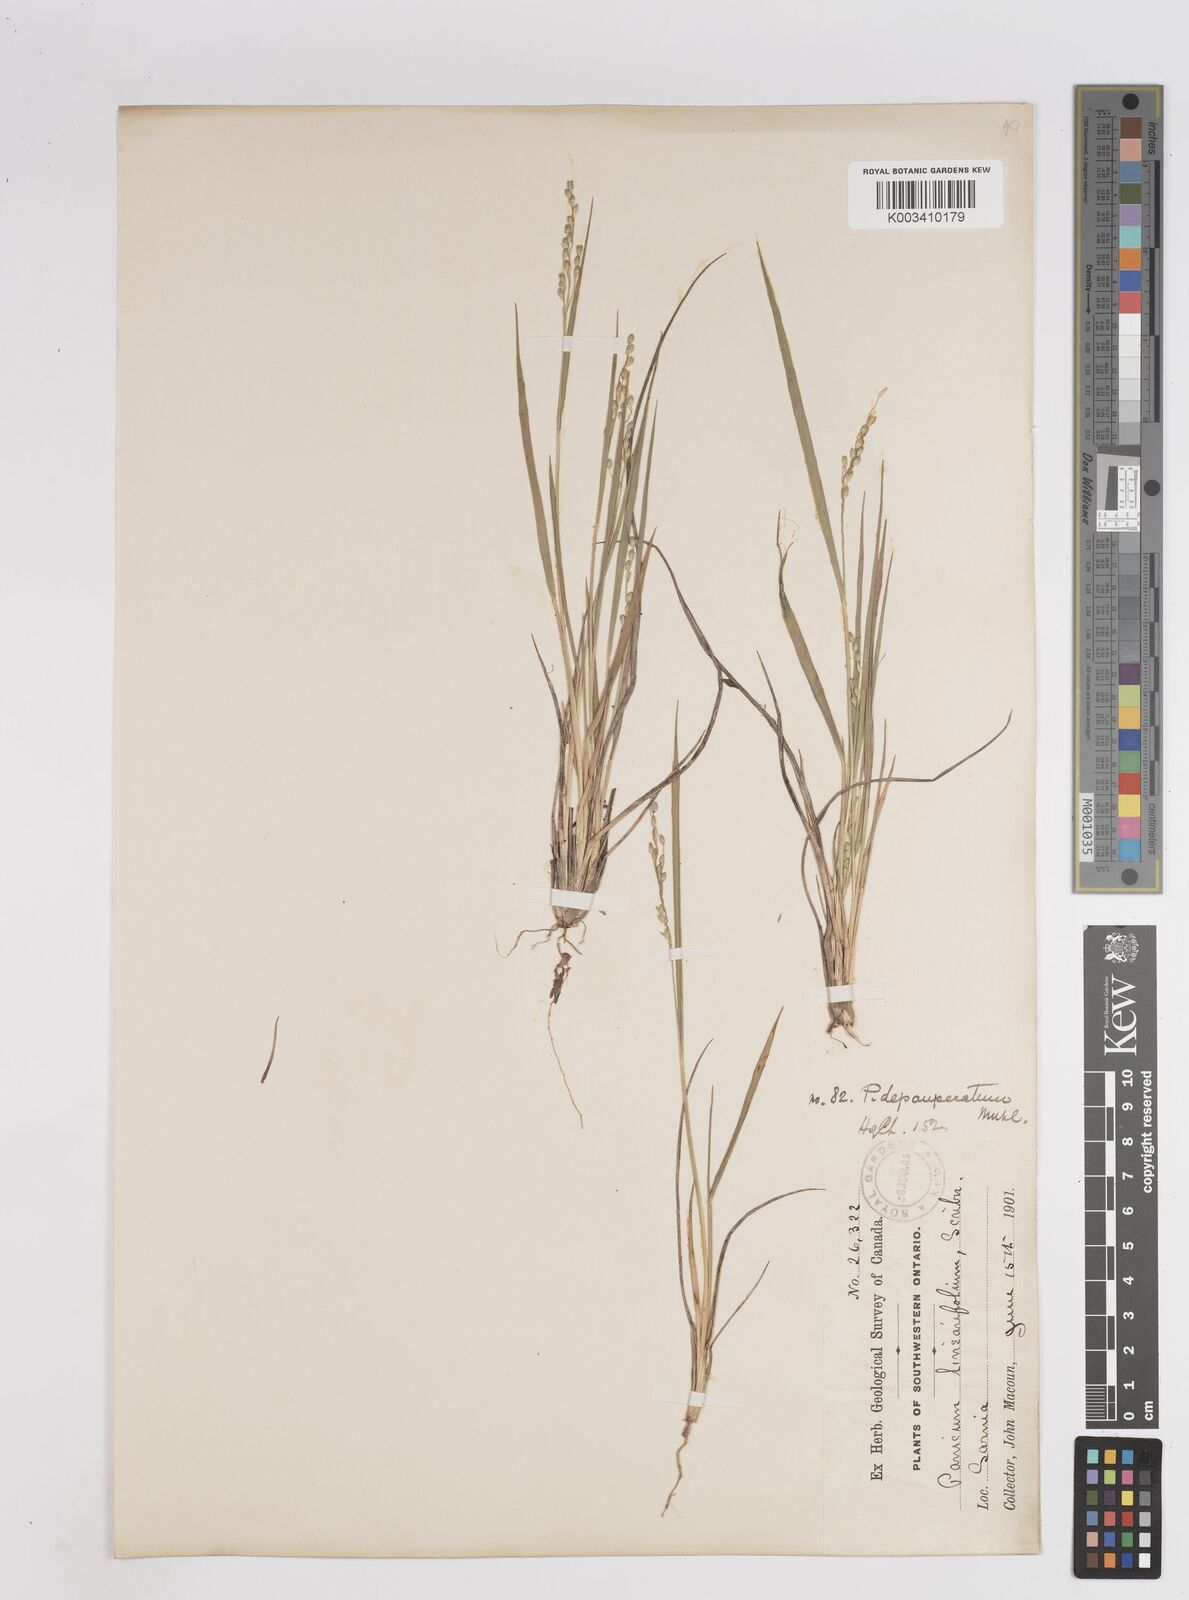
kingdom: Plantae
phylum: Tracheophyta
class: Liliopsida
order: Poales
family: Poaceae
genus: Dichanthelium
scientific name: Dichanthelium depauperatum
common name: Depauperate panicgrass
